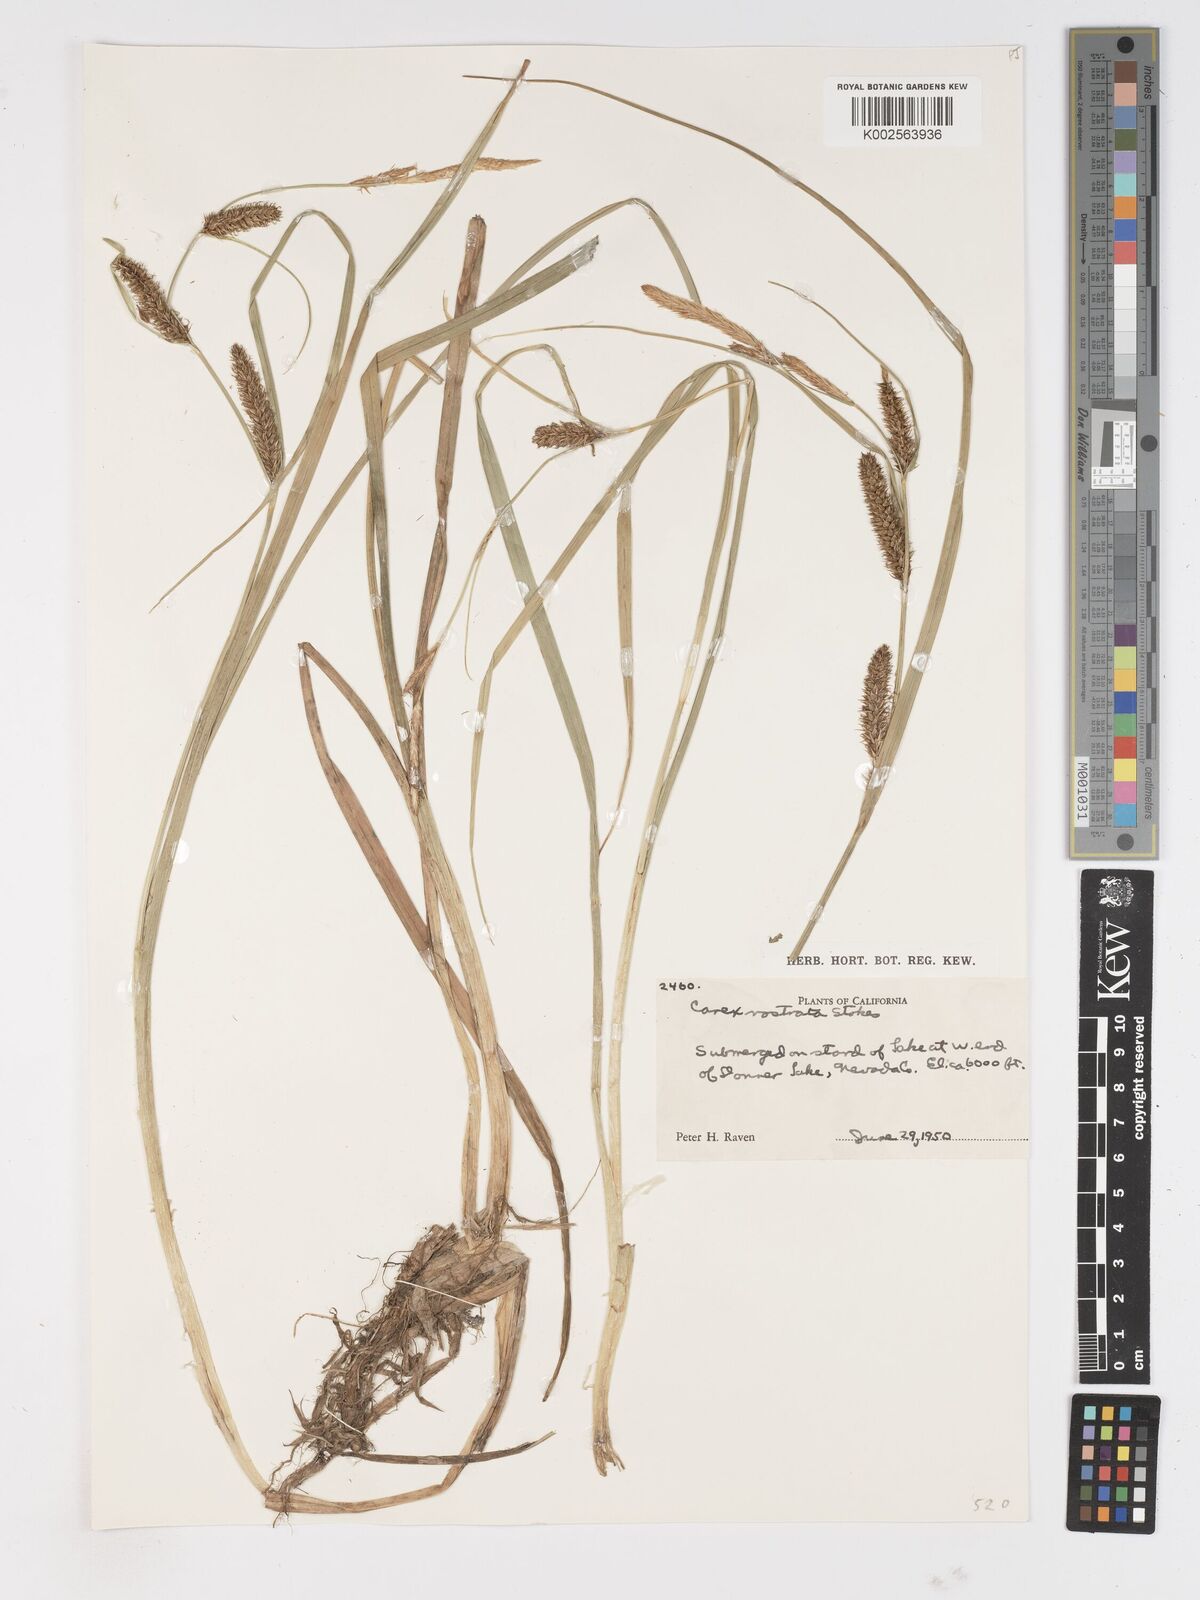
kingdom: Plantae
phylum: Tracheophyta
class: Liliopsida
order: Poales
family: Cyperaceae
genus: Carex
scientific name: Carex rostrata
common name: Bottle sedge
